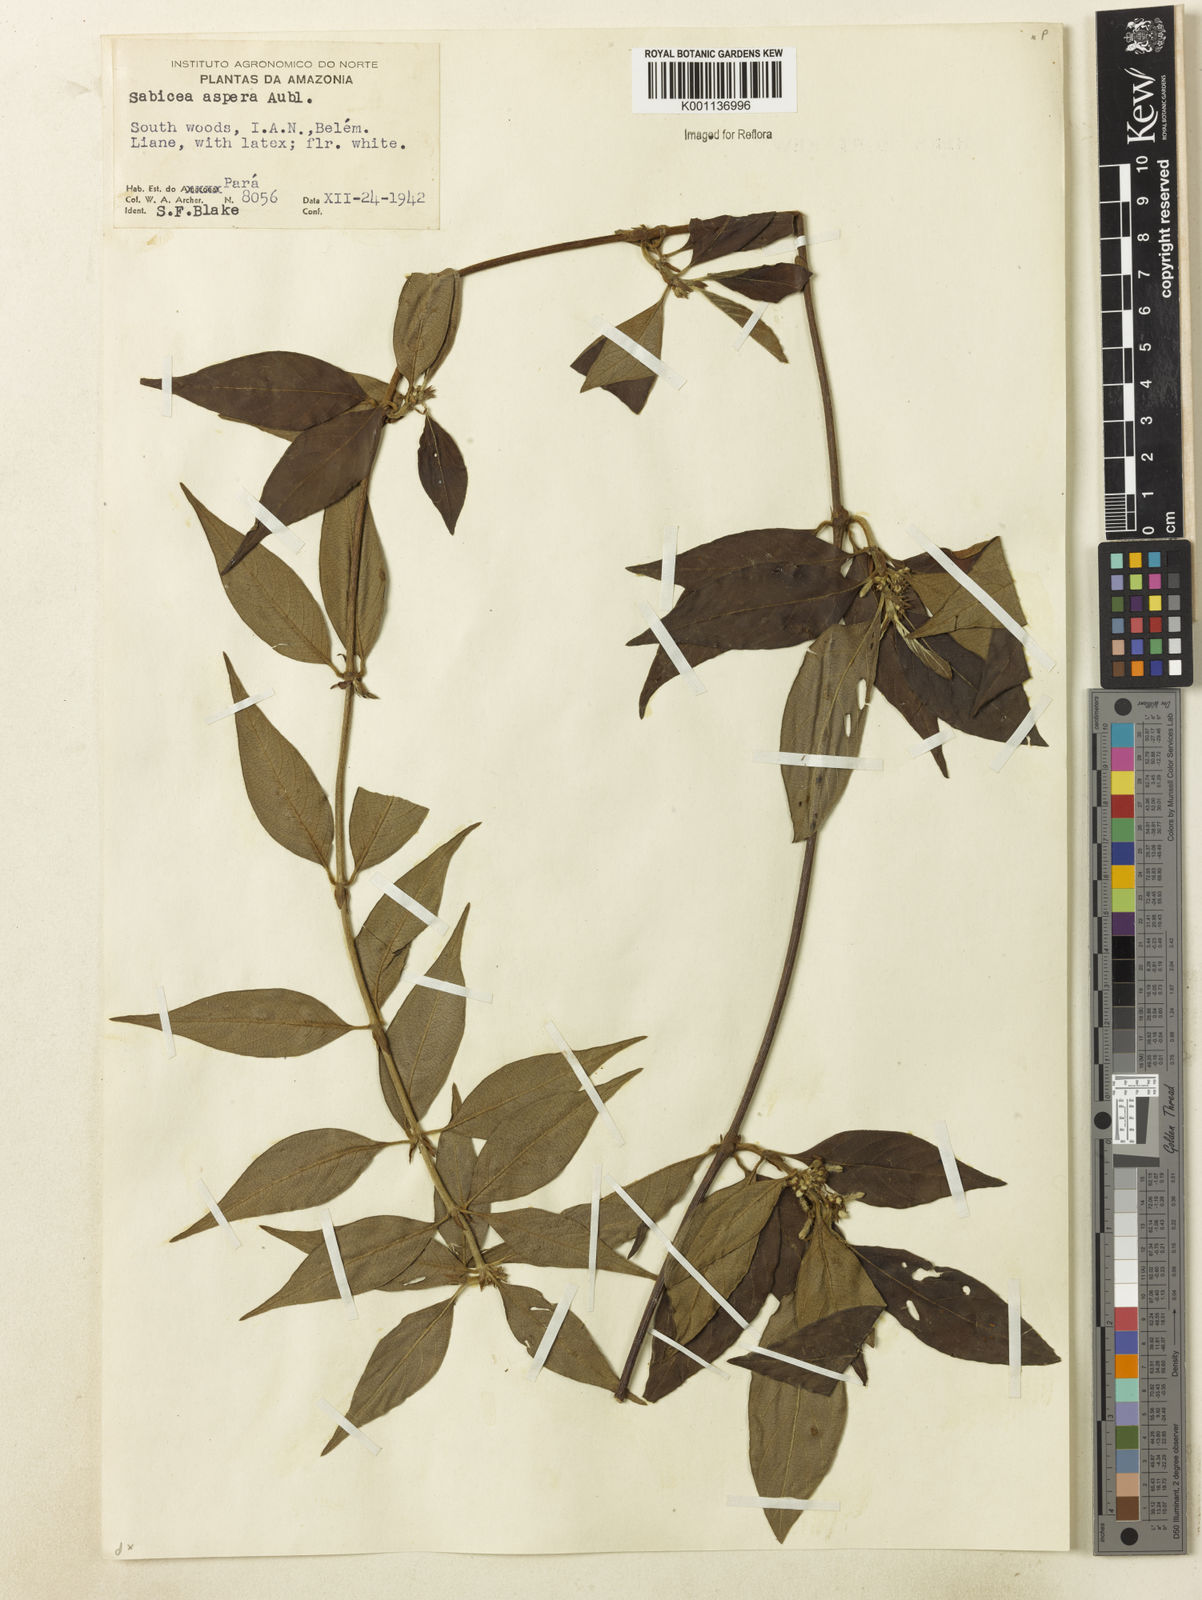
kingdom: Plantae
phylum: Tracheophyta
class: Magnoliopsida
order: Gentianales
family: Rubiaceae
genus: Sabicea
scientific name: Sabicea aspera
